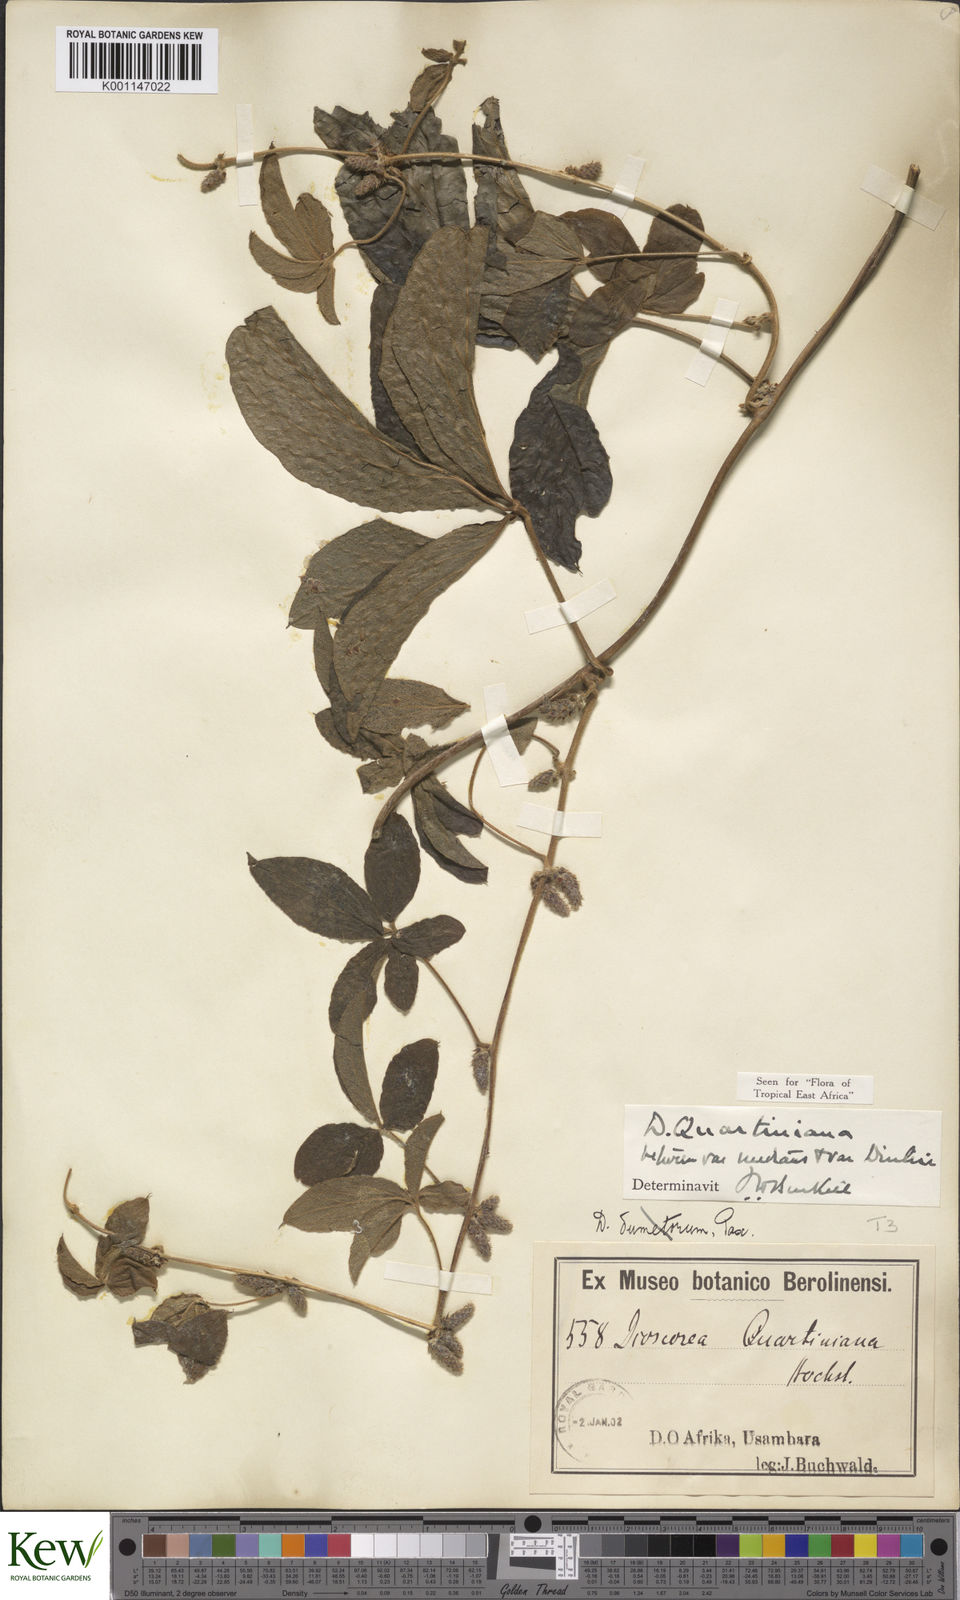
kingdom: Plantae
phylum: Tracheophyta
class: Liliopsida
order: Dioscoreales
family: Dioscoreaceae
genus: Dioscorea
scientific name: Dioscorea quartiniana
